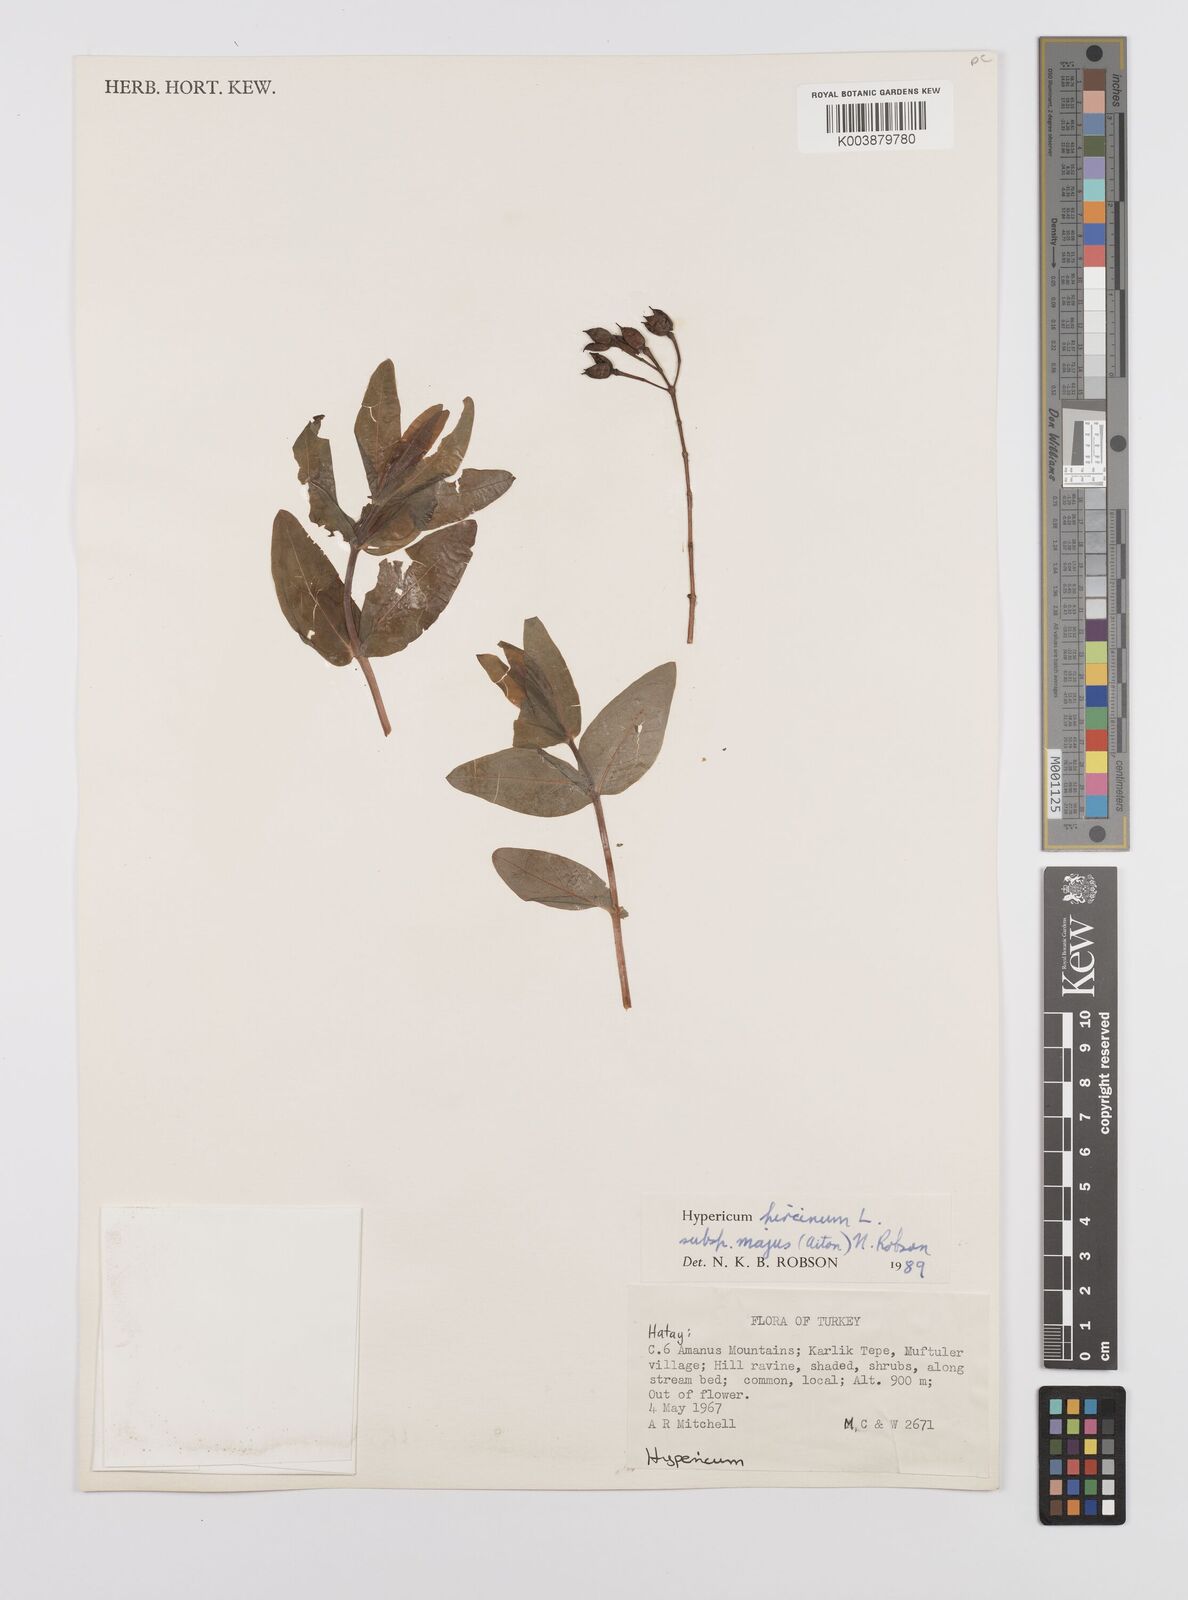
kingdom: Plantae
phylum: Tracheophyta
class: Magnoliopsida
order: Malpighiales
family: Hypericaceae
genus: Hypericum
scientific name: Hypericum hircinum
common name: Stinking tutsan
